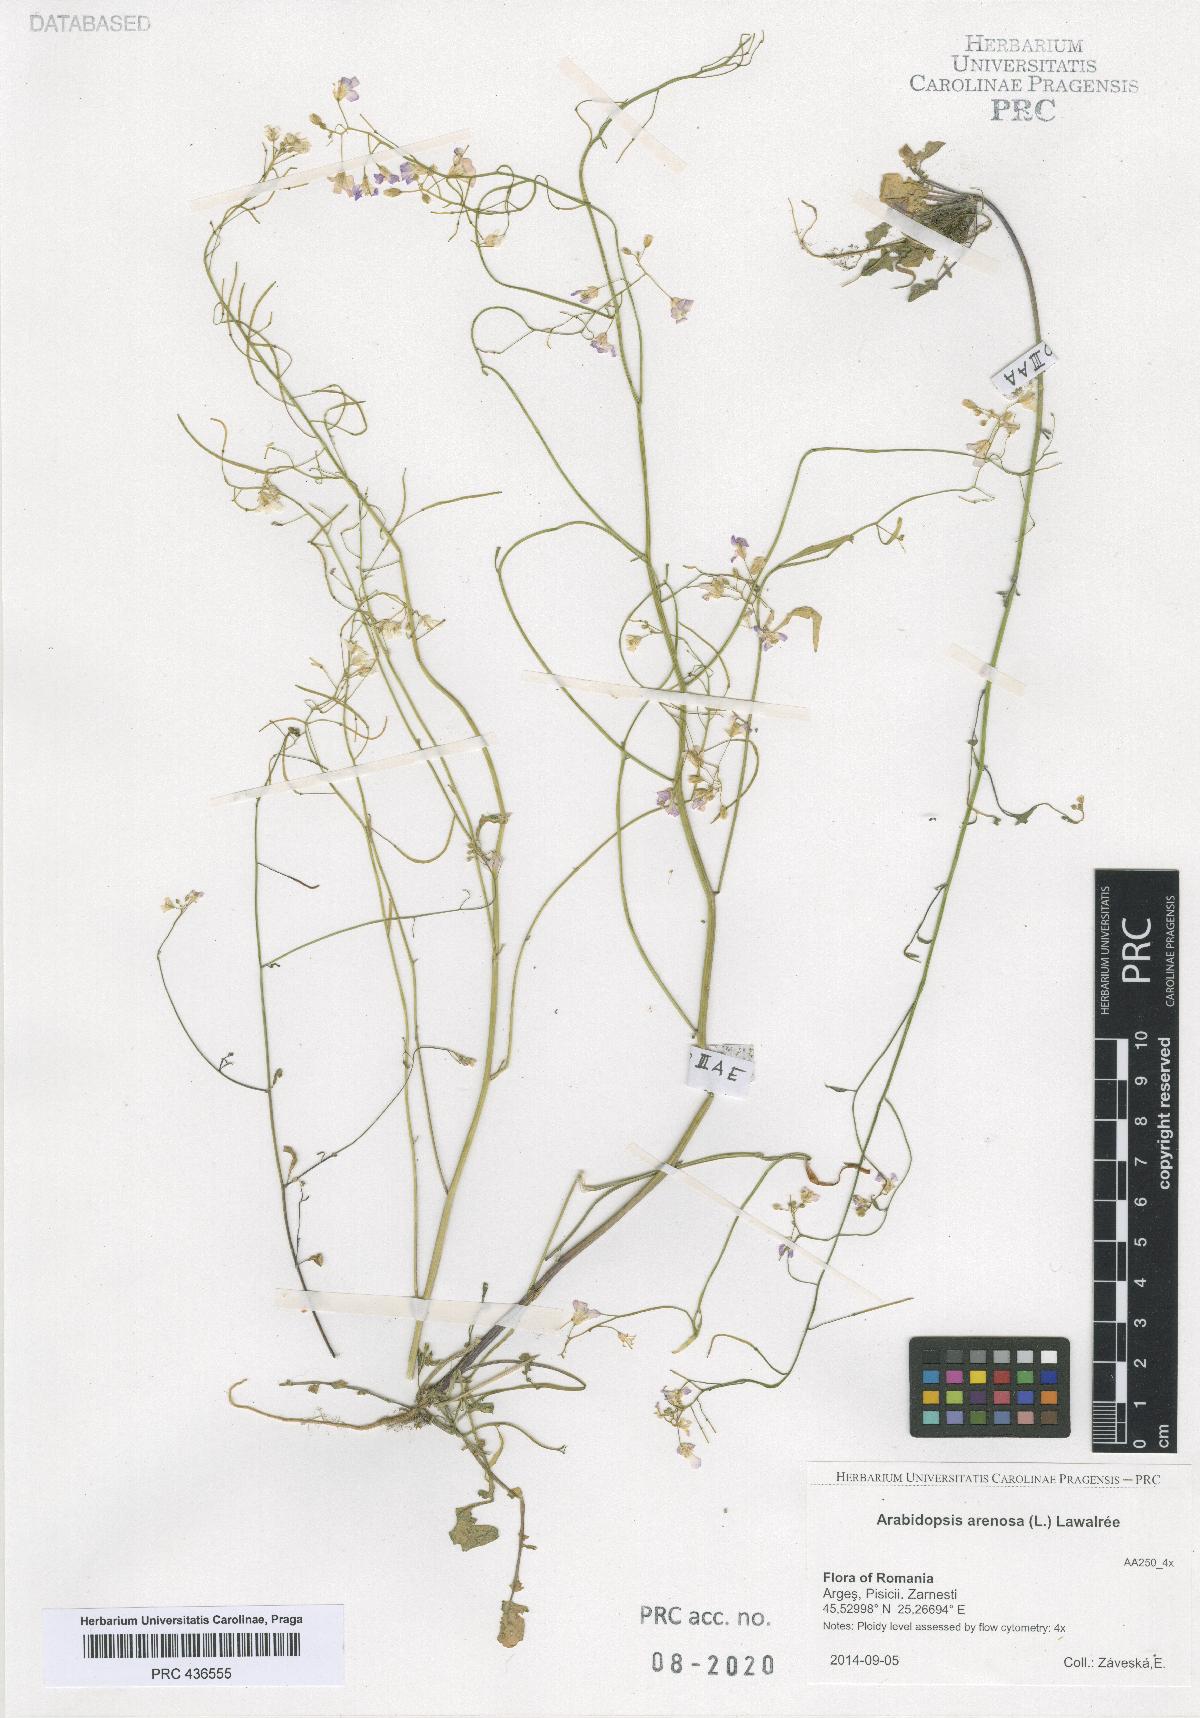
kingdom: Plantae
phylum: Tracheophyta
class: Magnoliopsida
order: Brassicales
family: Brassicaceae
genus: Arabidopsis
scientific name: Arabidopsis arenosa
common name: Sand rock-cress
